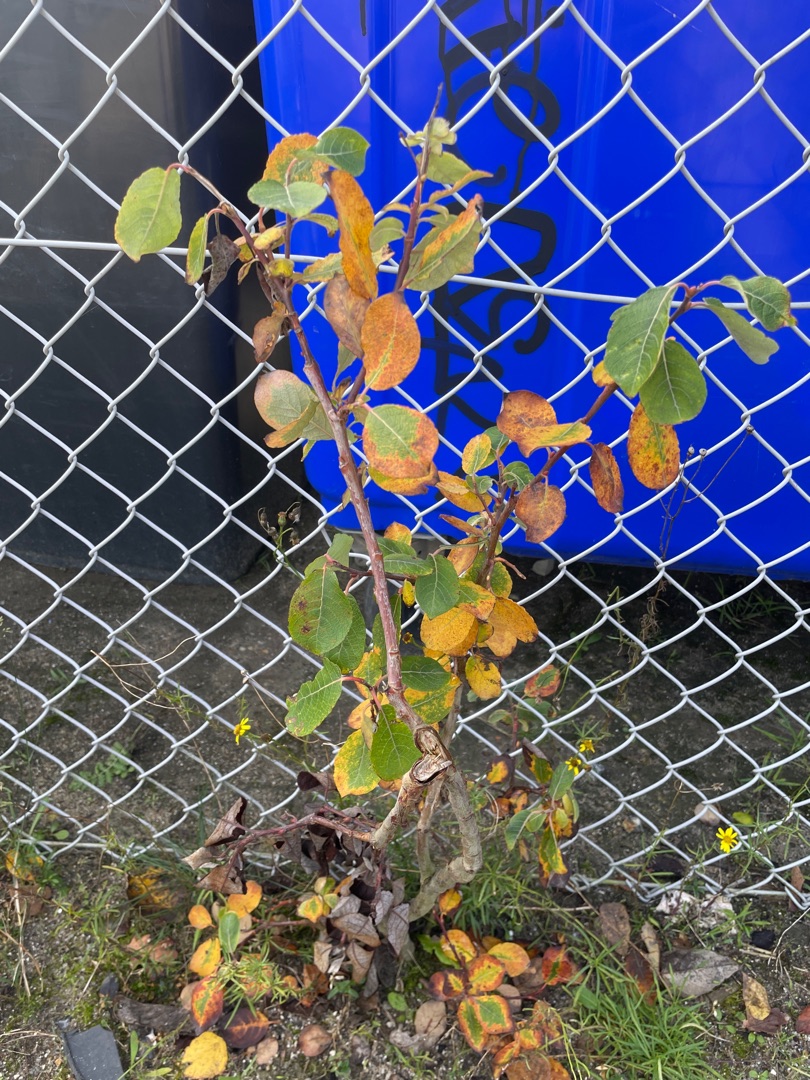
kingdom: Plantae
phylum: Tracheophyta
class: Magnoliopsida
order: Malpighiales
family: Salicaceae
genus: Salix
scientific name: Salix caprea
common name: Selje-pil
